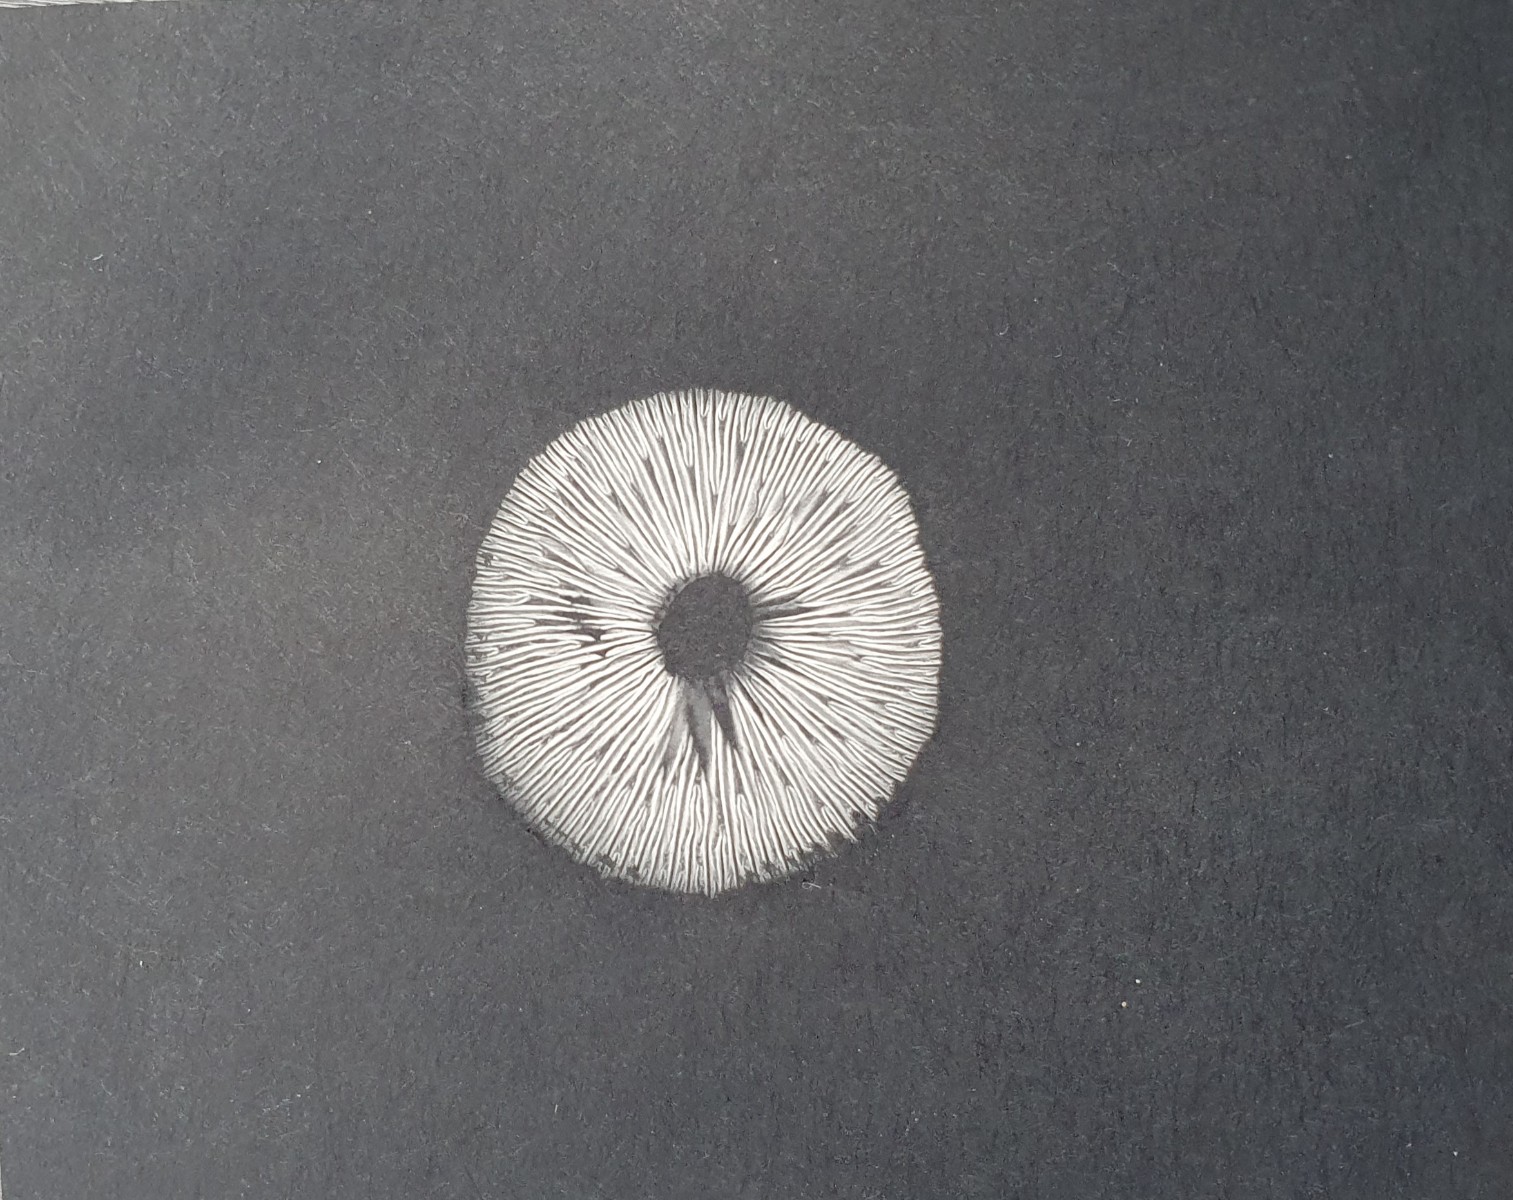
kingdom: Fungi
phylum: Basidiomycota
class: Agaricomycetes
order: Agaricales
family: Tricholomataceae
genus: Clitocybe
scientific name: Clitocybe agrestis
